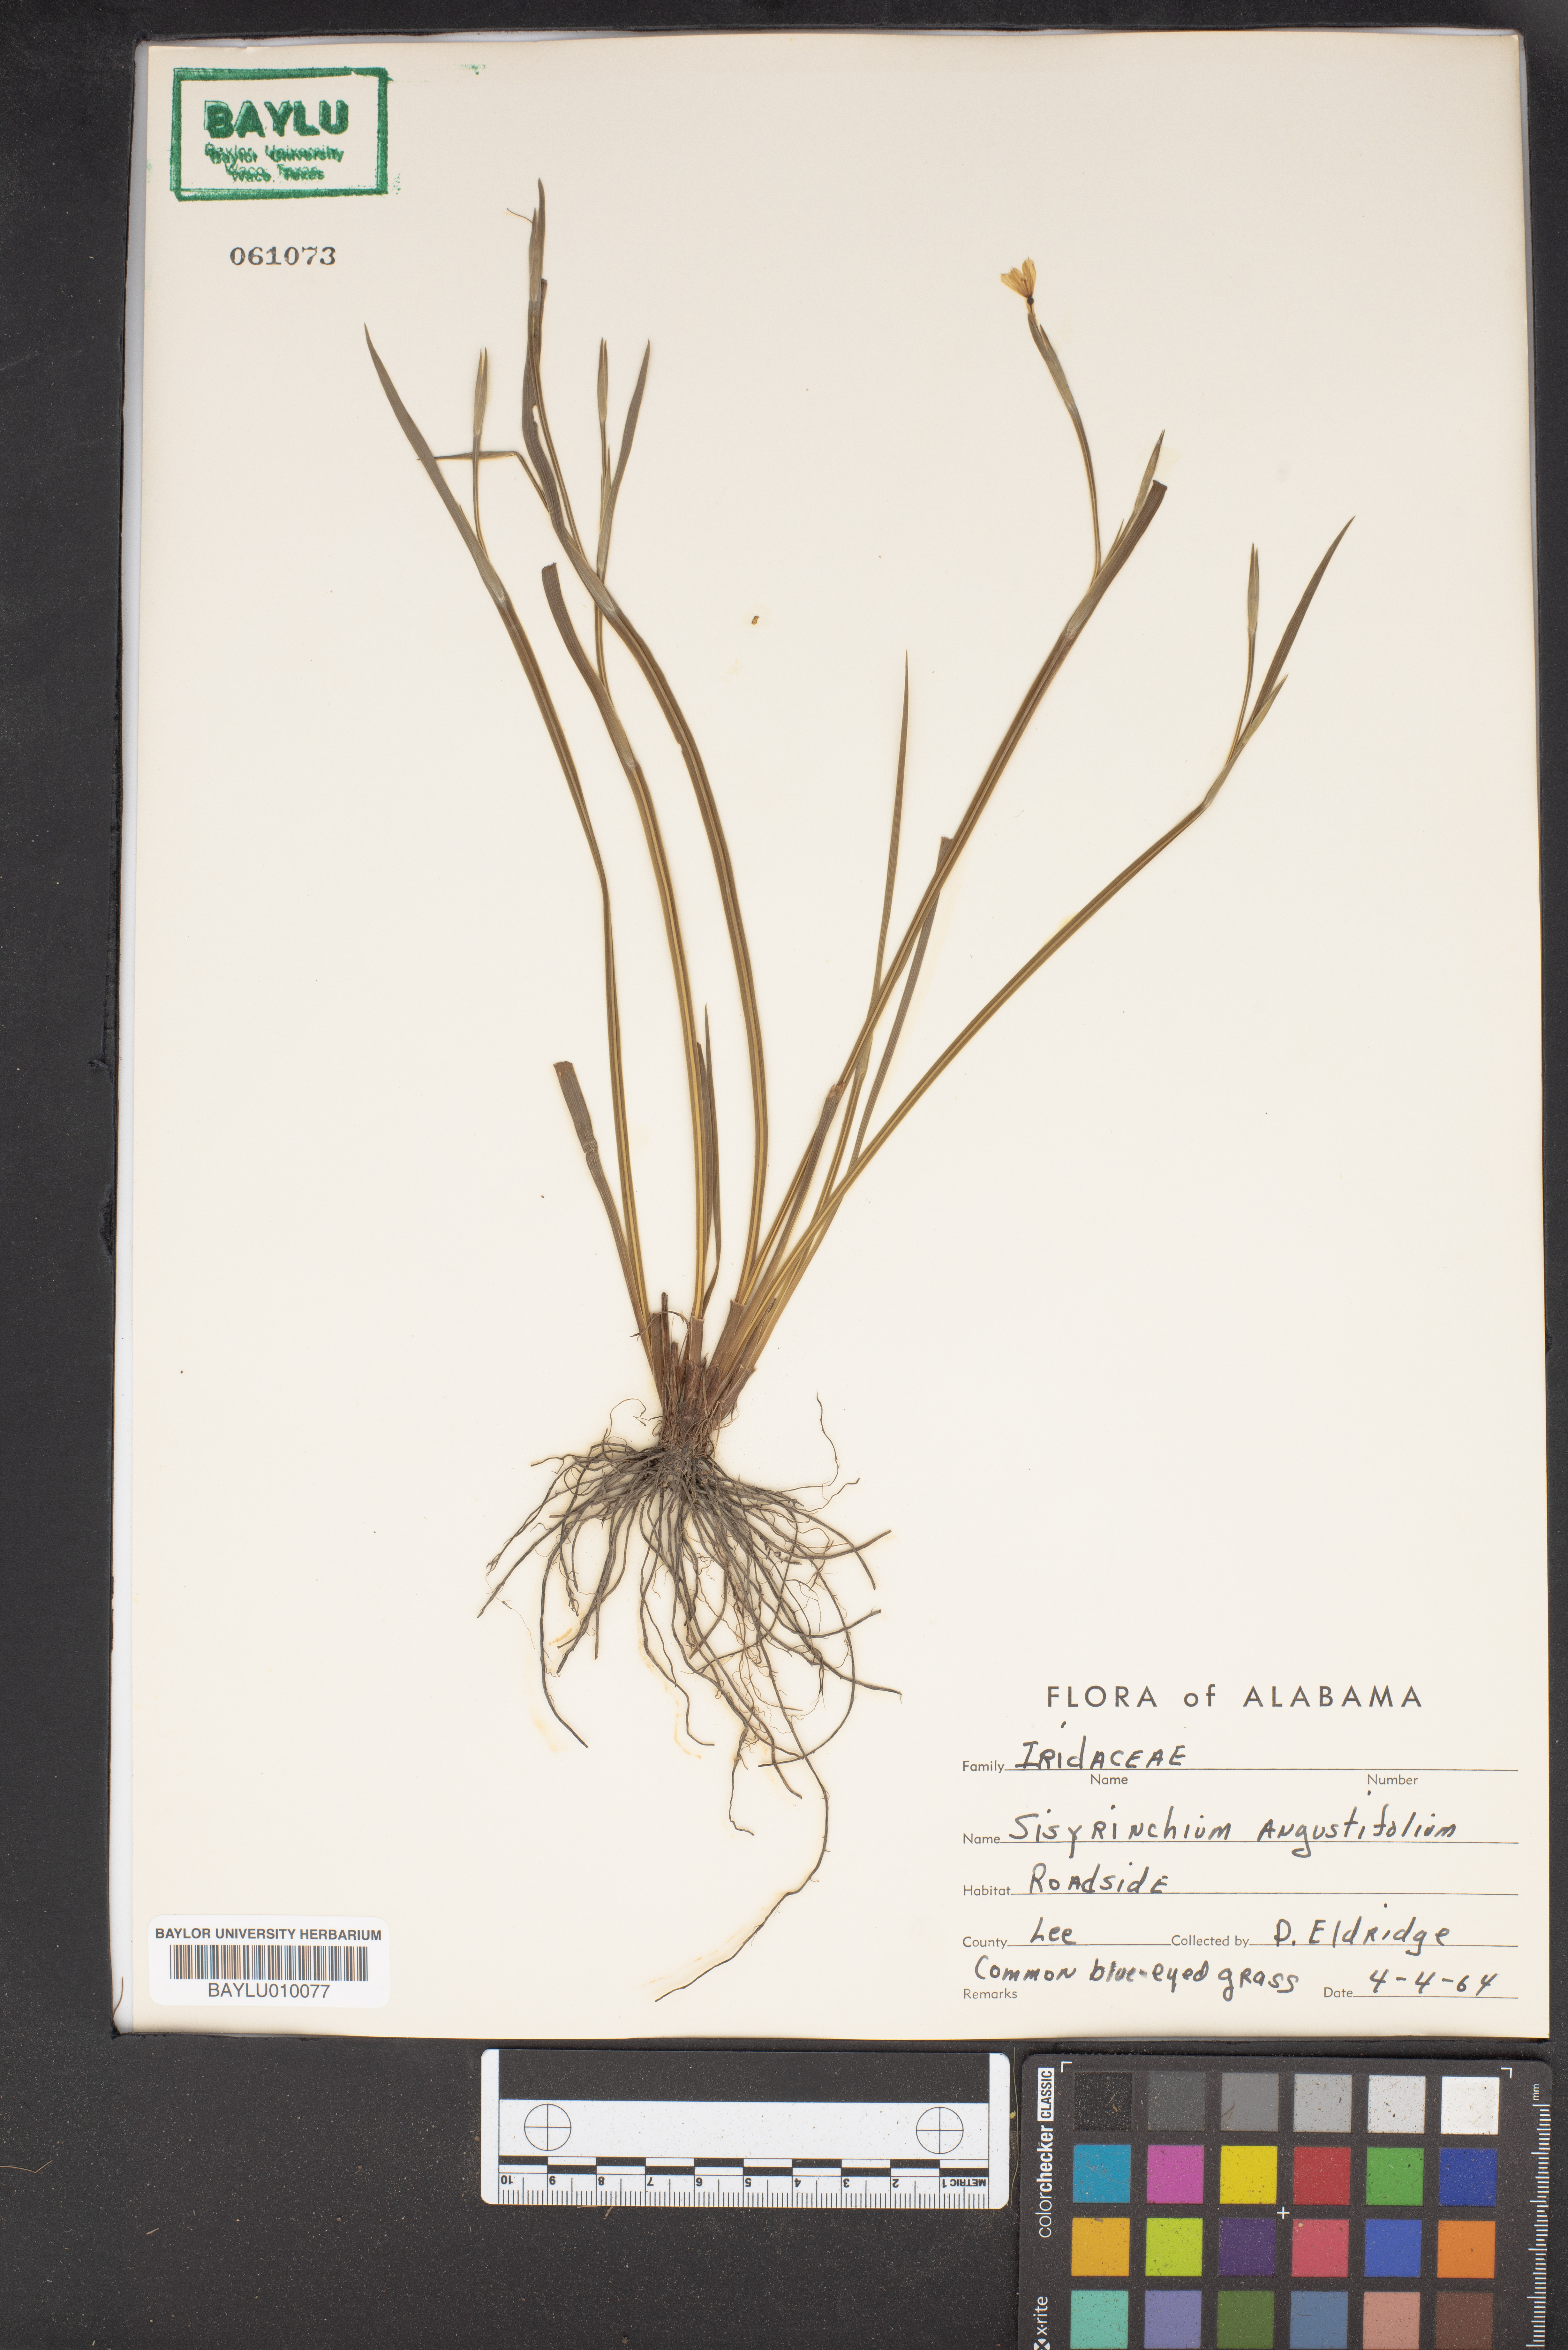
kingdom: Plantae
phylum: Tracheophyta
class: Liliopsida
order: Asparagales
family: Iridaceae
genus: Sisyrinchium
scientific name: Sisyrinchium angustifolium
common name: Narrow-leaf blue-eyed-grass
